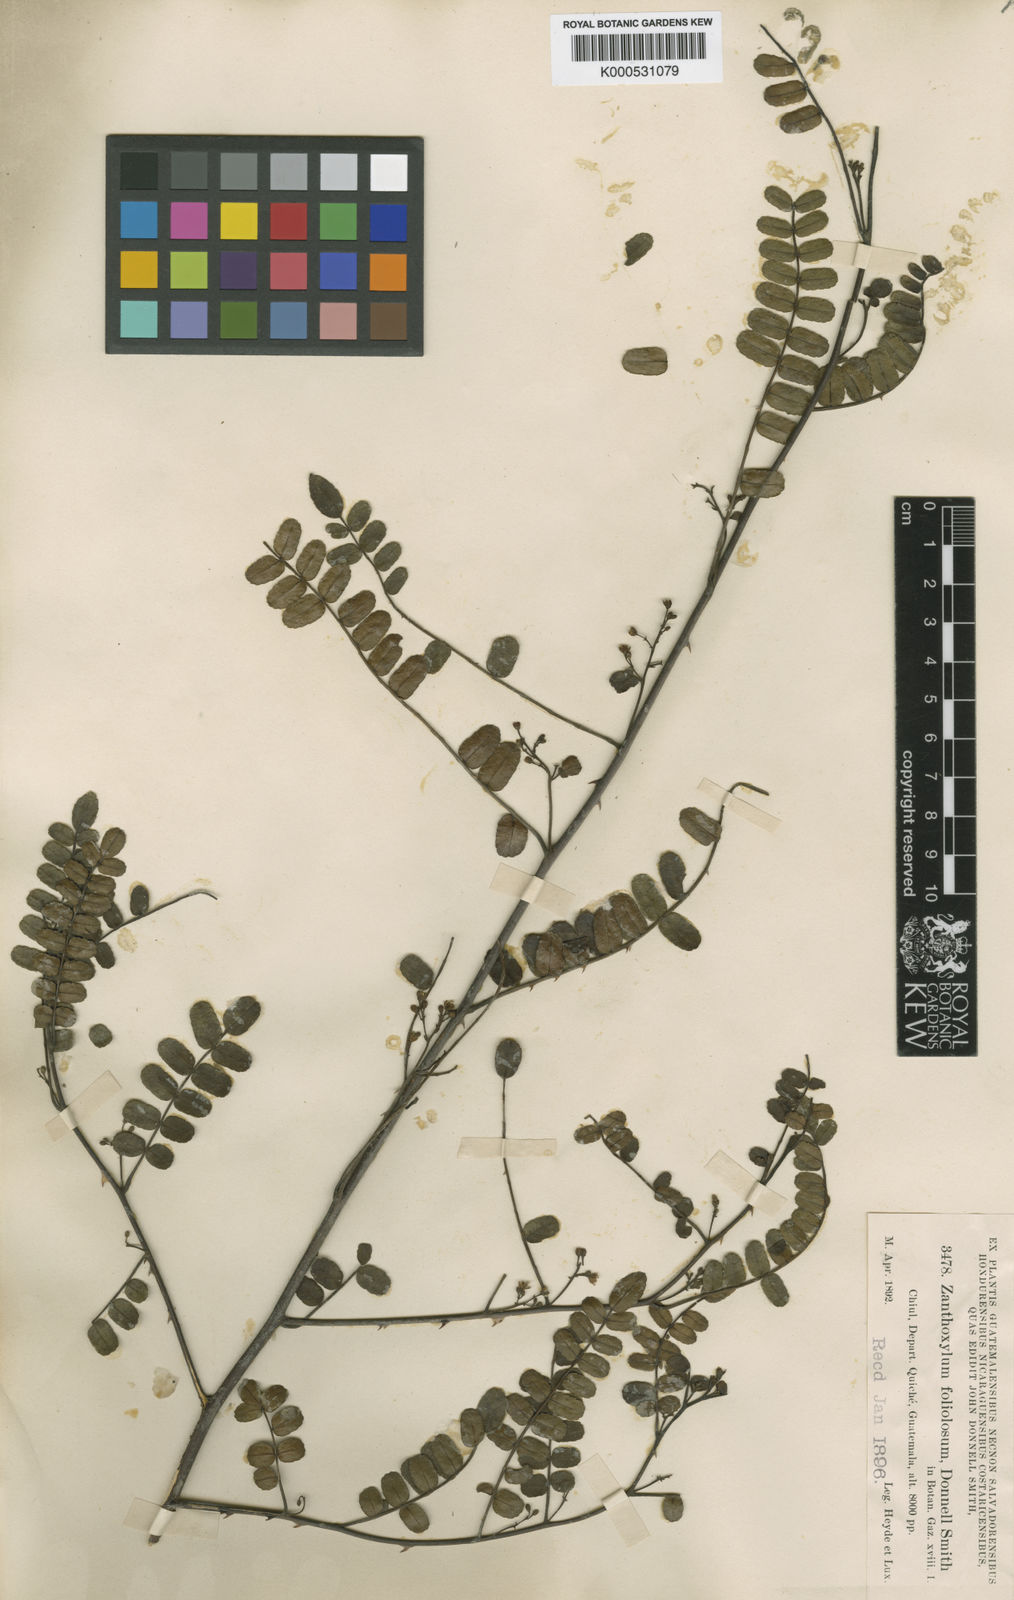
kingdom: Plantae
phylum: Tracheophyta
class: Magnoliopsida
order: Sapindales
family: Rutaceae
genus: Zanthoxylum
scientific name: Zanthoxylum foliolosum
